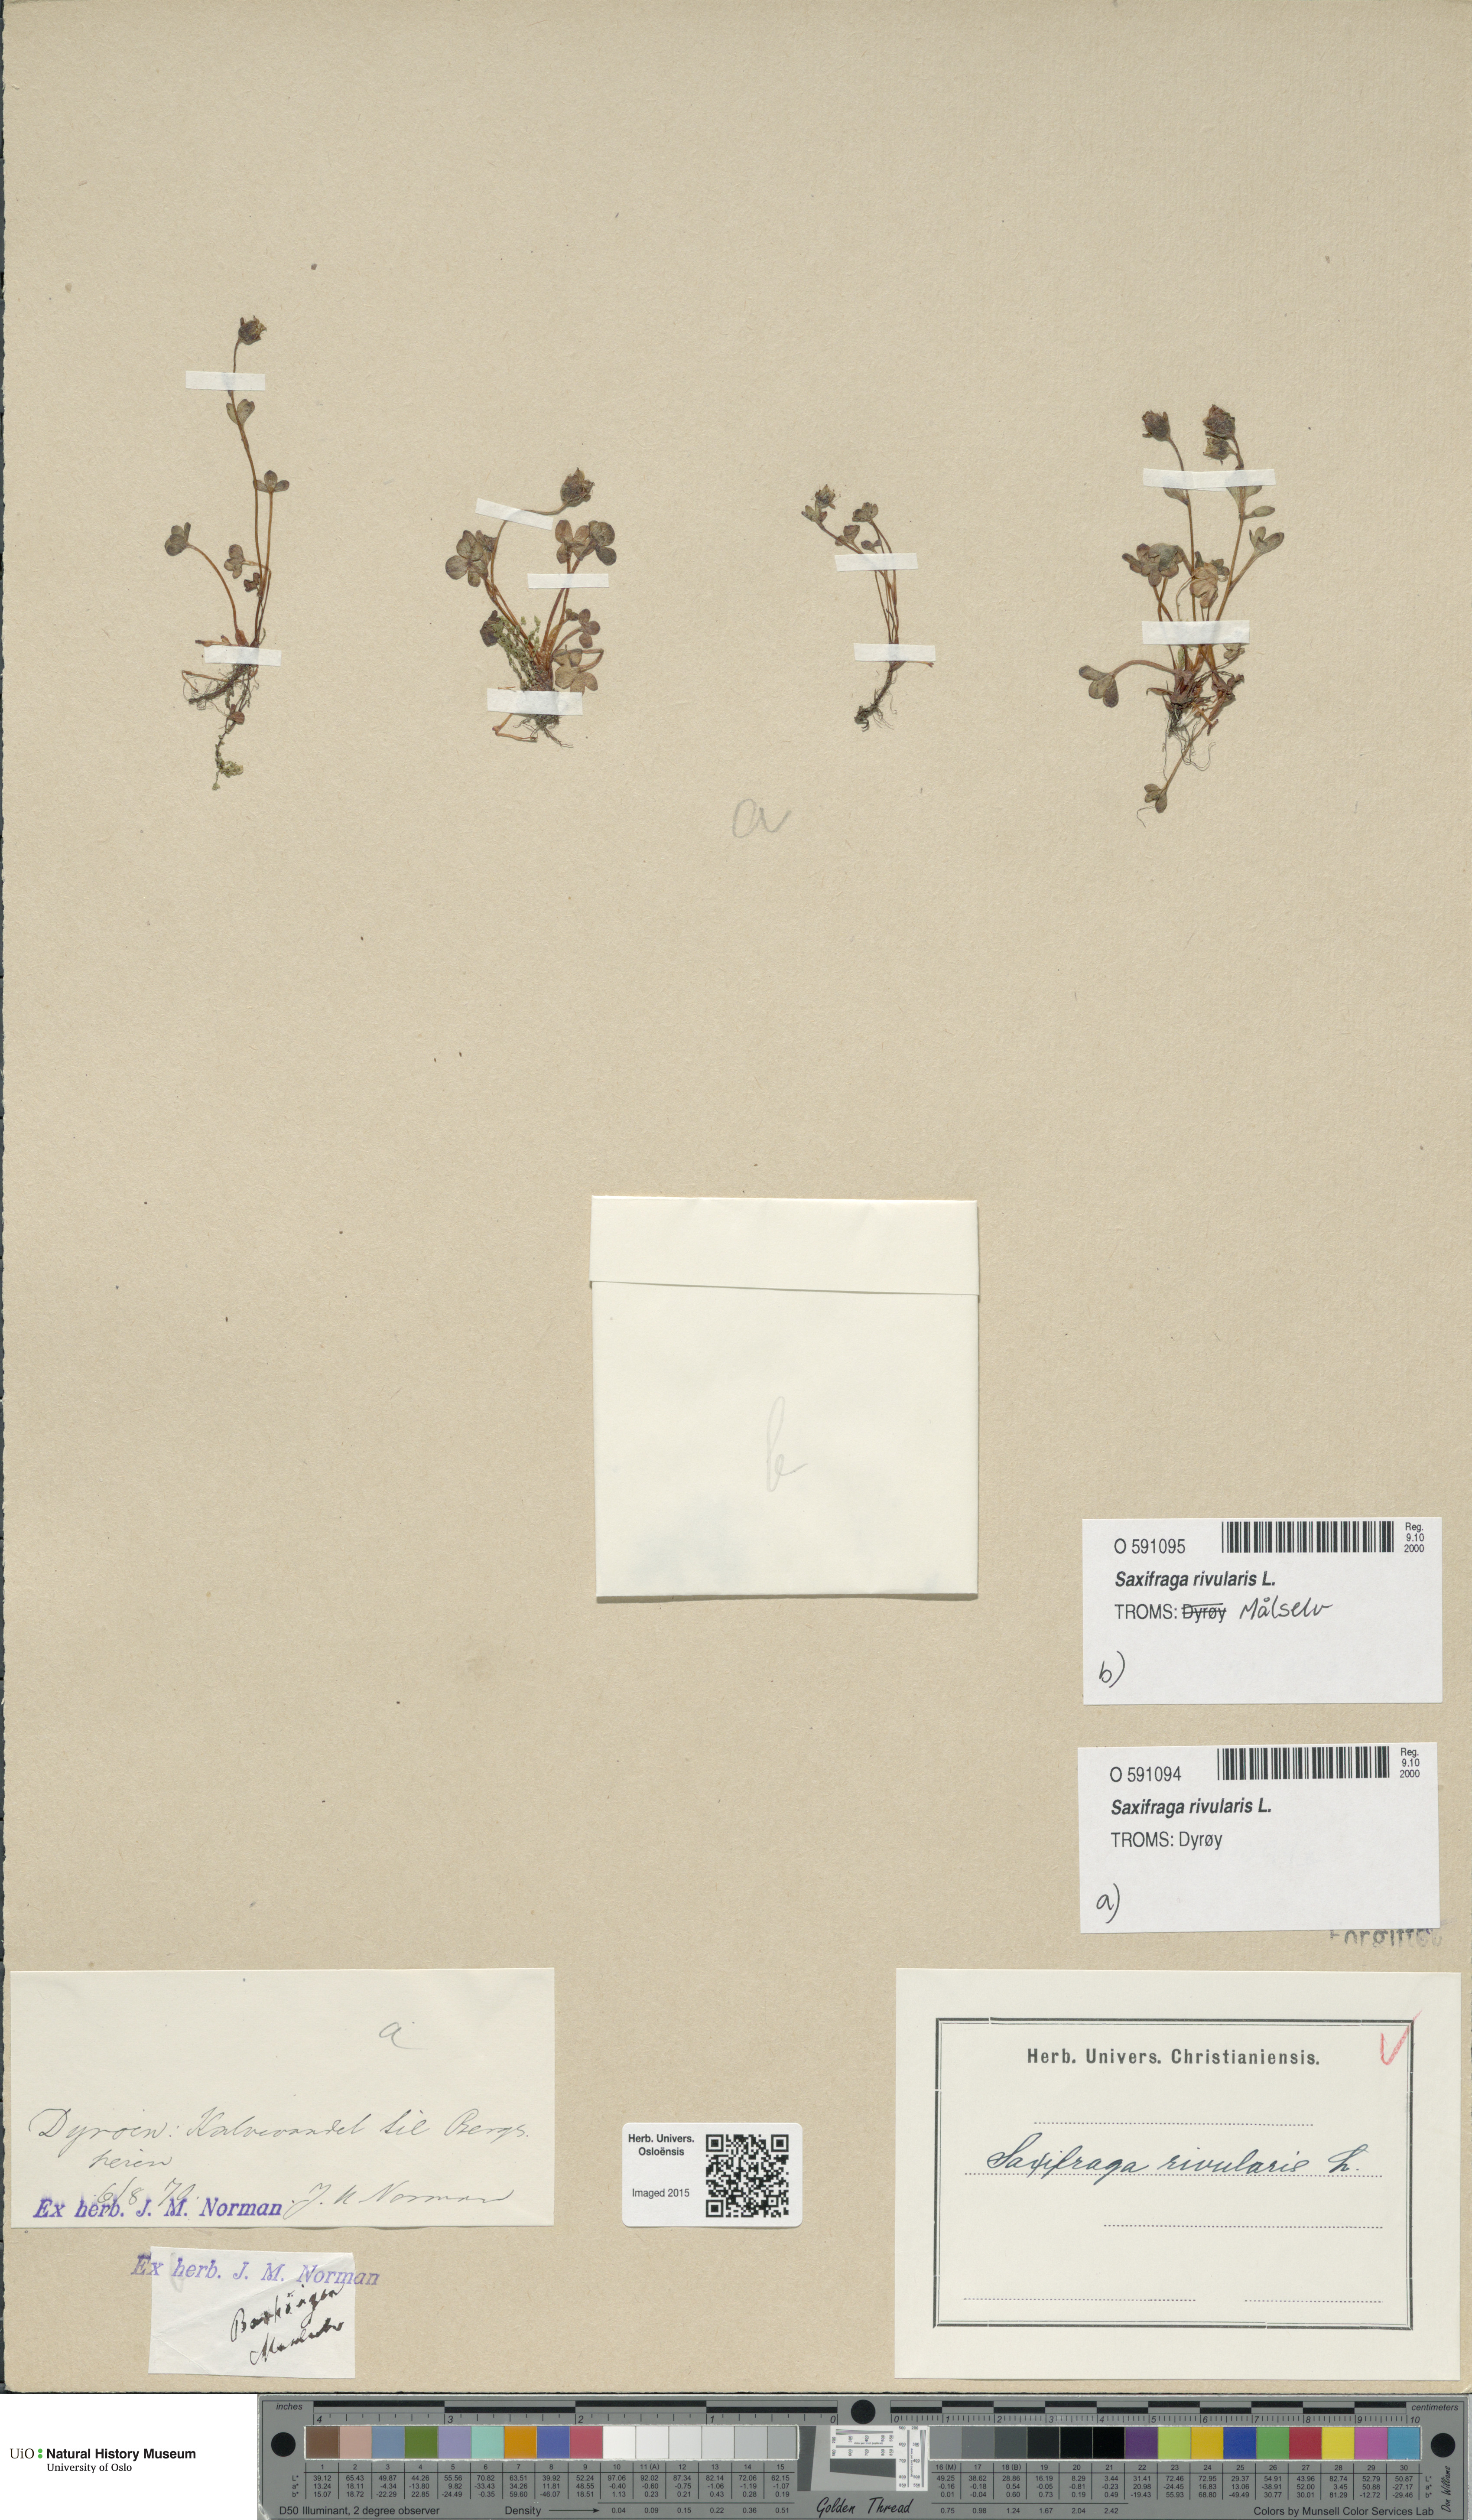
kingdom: Plantae
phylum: Tracheophyta
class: Magnoliopsida
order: Saxifragales
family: Saxifragaceae
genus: Saxifraga
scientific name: Saxifraga rivularis
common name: Highland saxifrage
